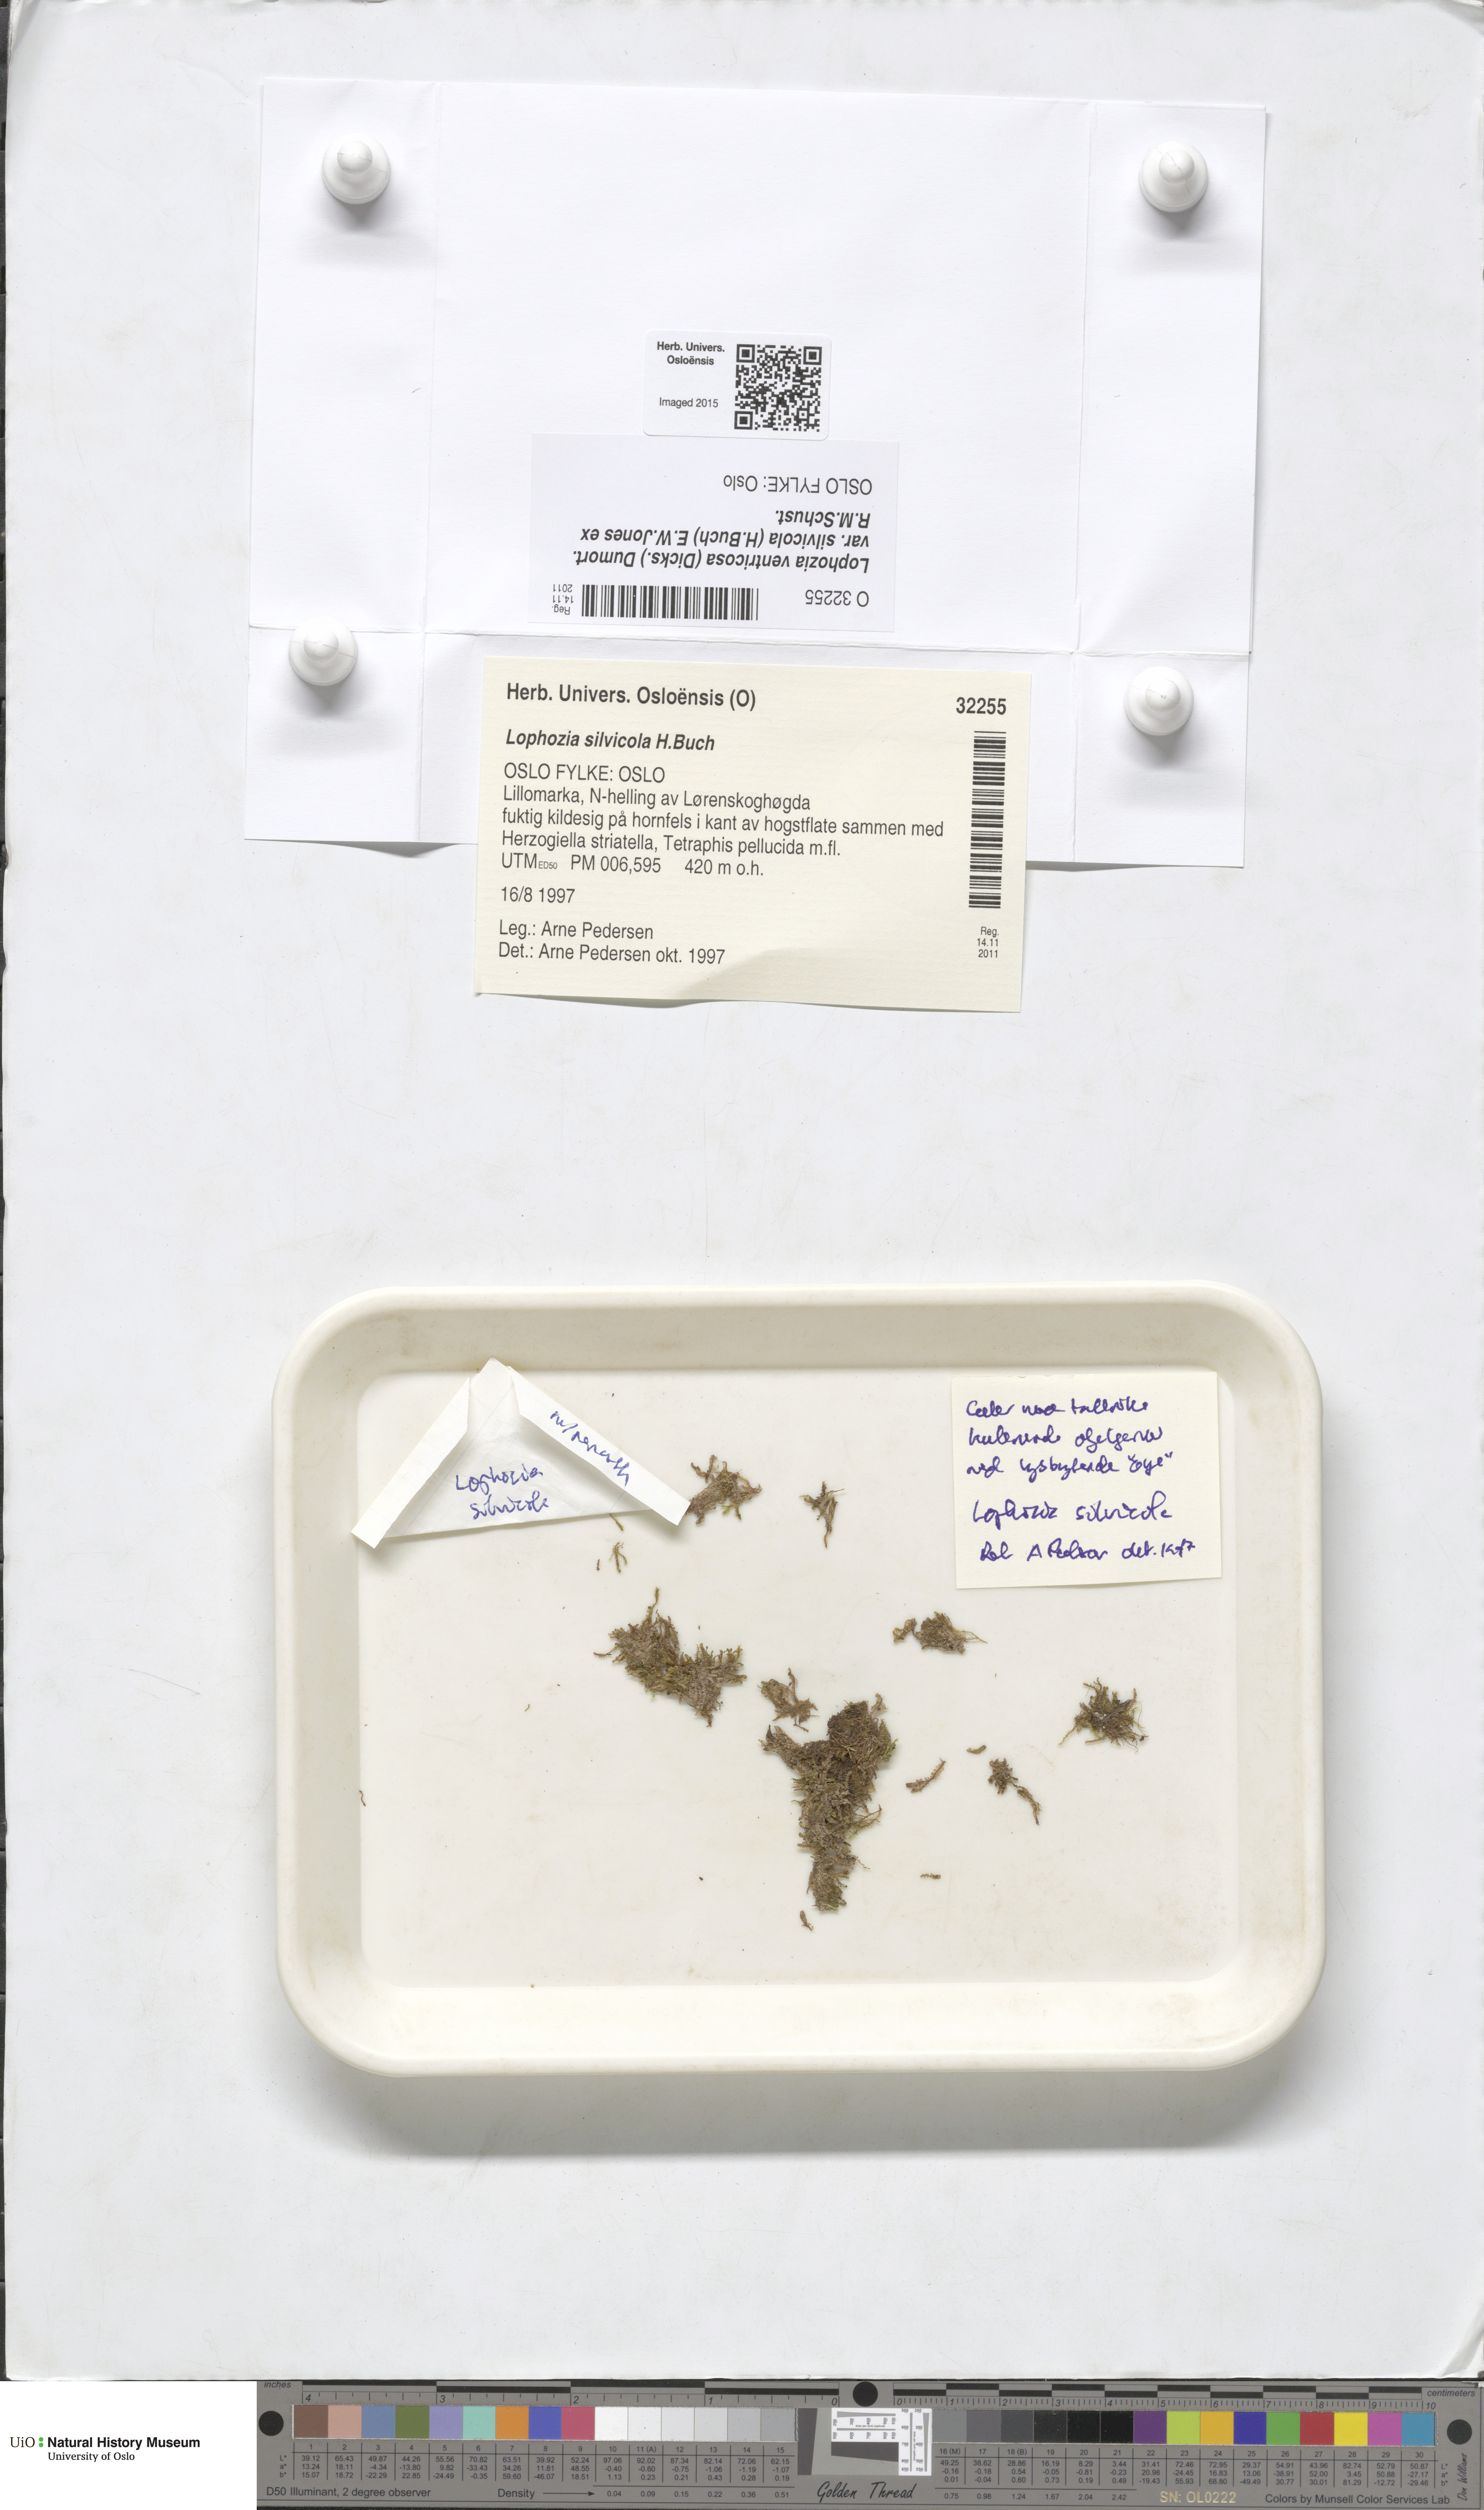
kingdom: Plantae
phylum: Marchantiophyta
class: Jungermanniopsida
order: Jungermanniales
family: Lophoziaceae
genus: Lophozia
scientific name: Lophozia silvicola
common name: Forest notchwort
